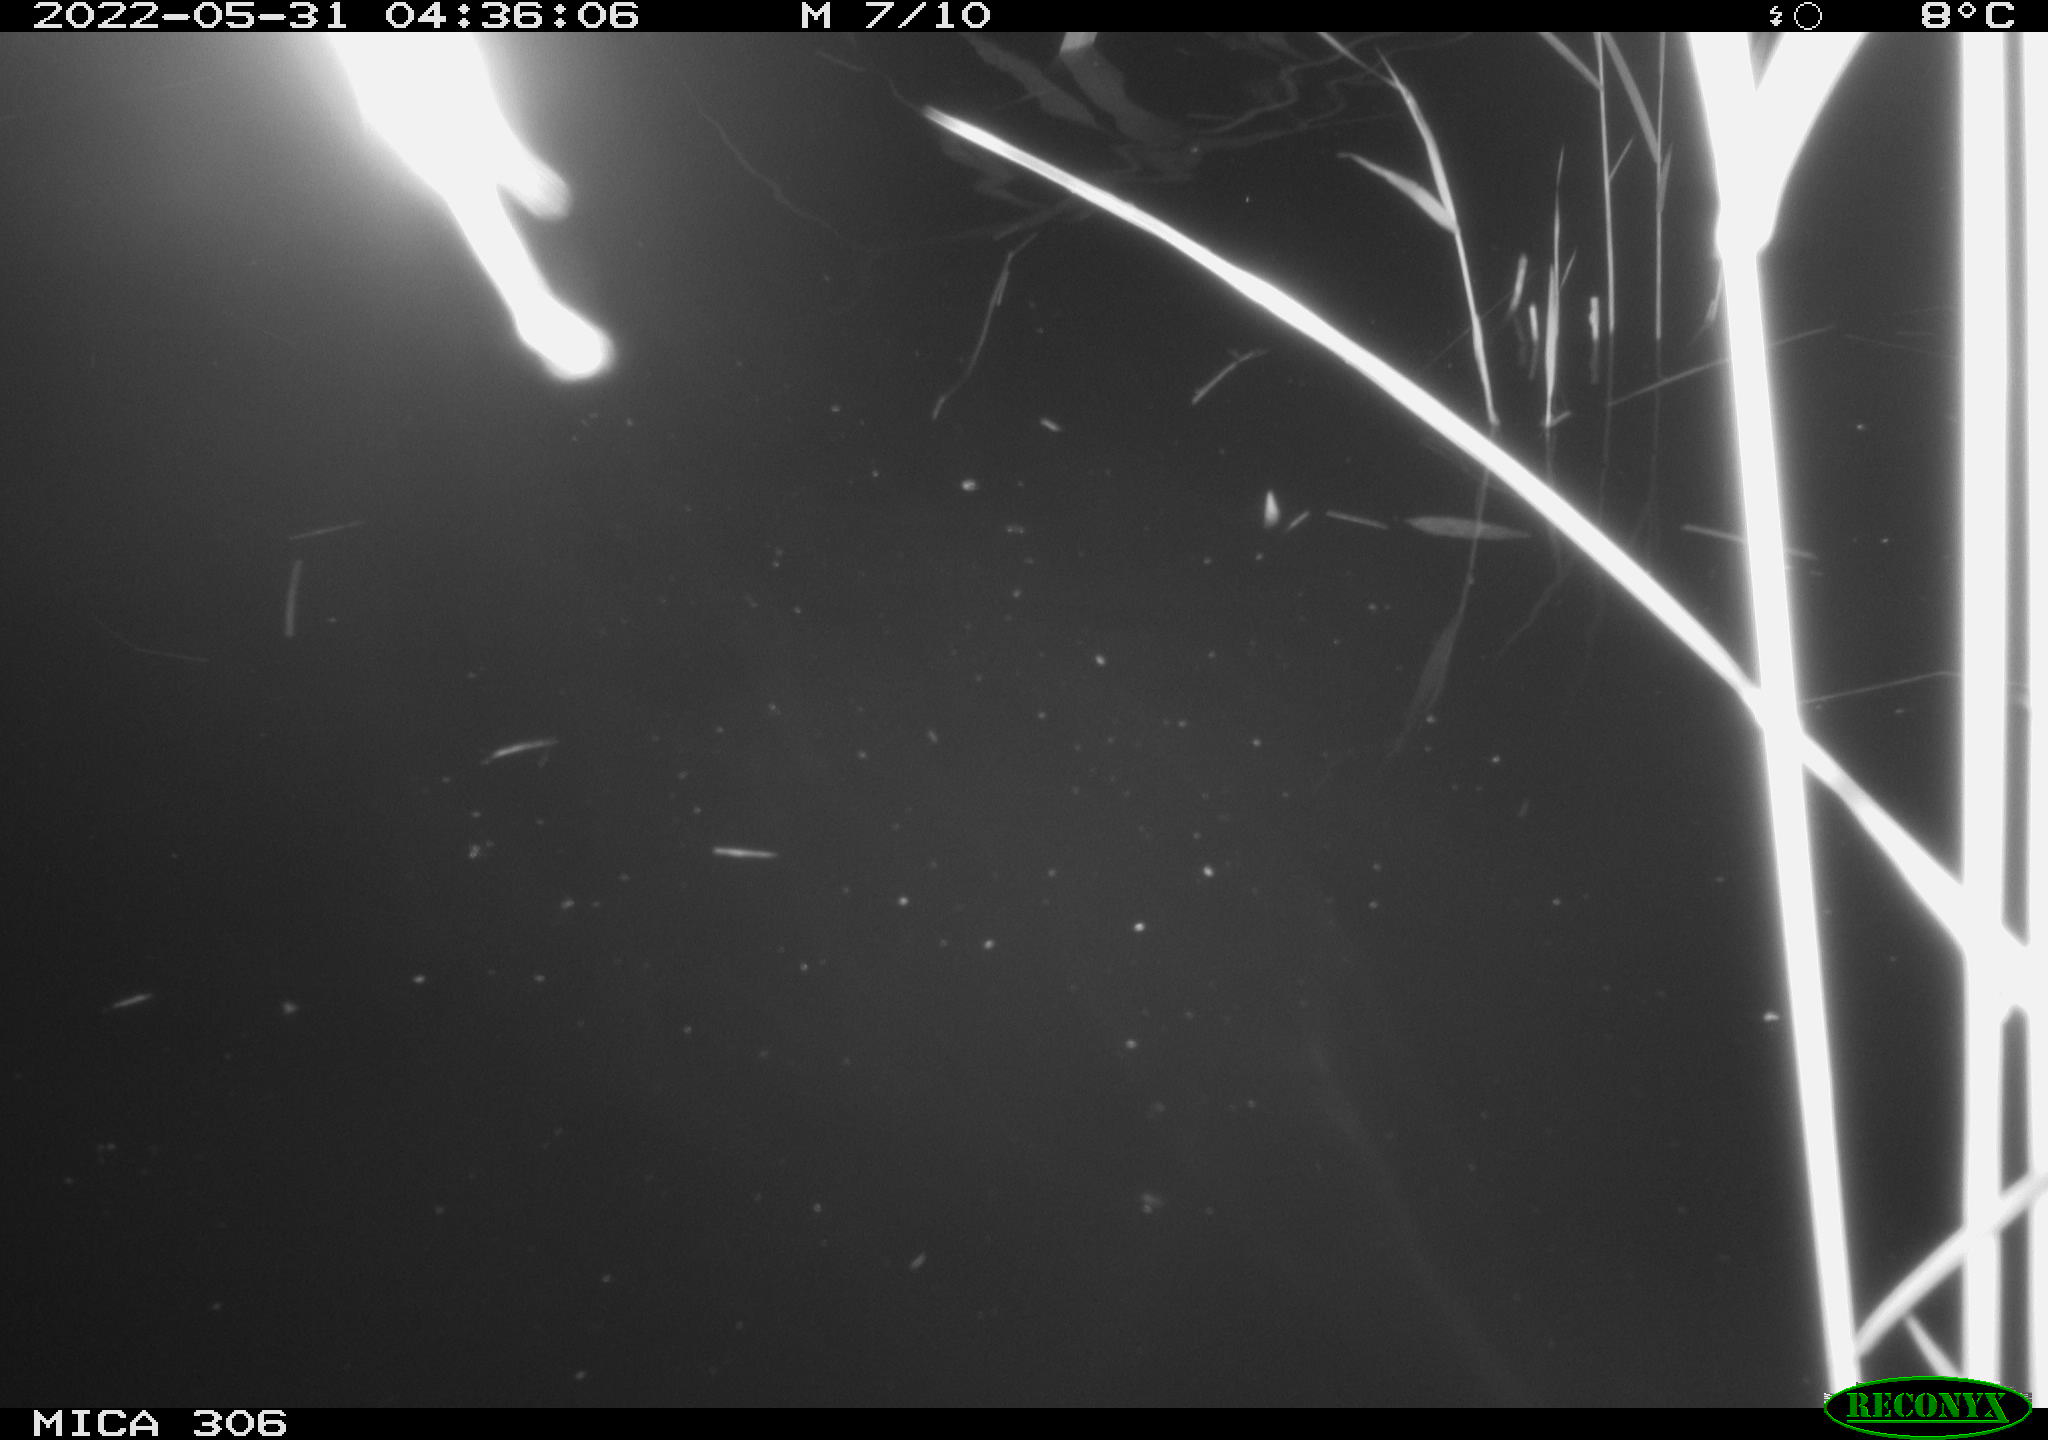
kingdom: Animalia
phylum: Chordata
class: Aves
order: Anseriformes
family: Anatidae
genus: Anas
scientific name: Anas platyrhynchos
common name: Mallard
